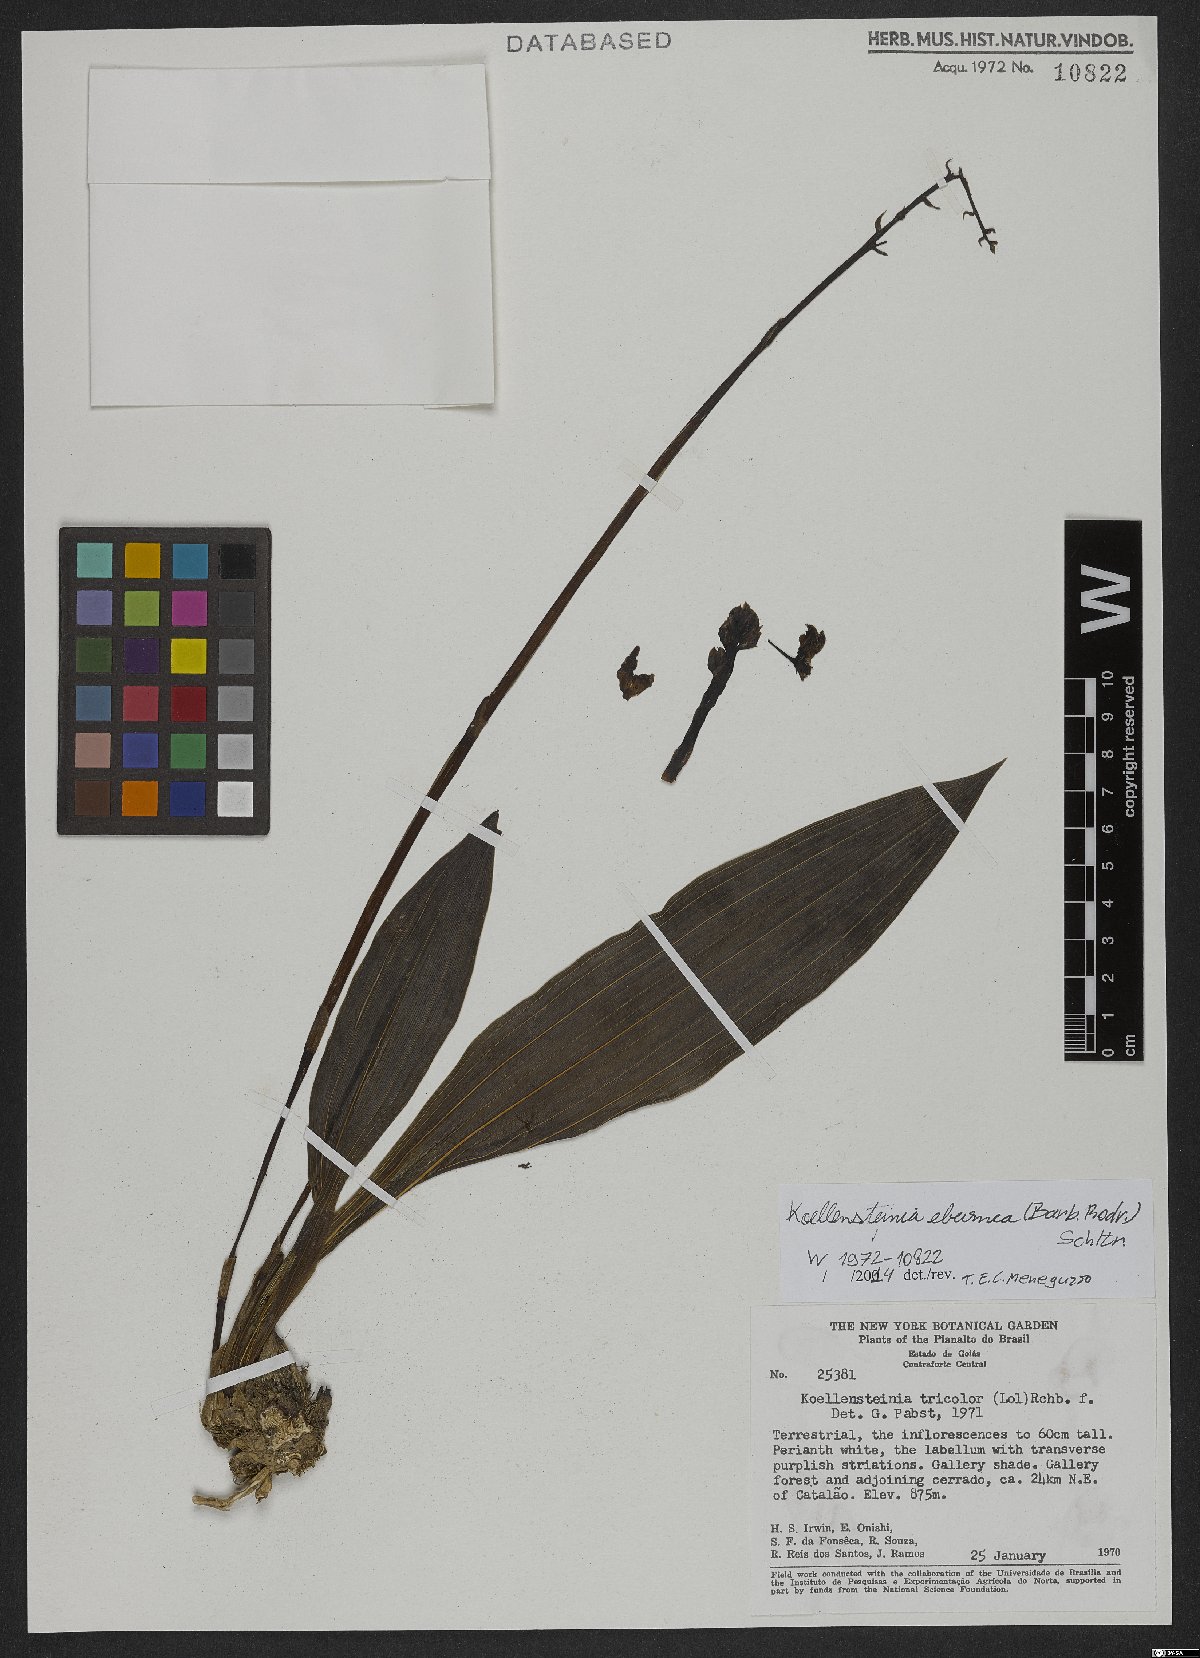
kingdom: Plantae
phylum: Tracheophyta
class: Liliopsida
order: Asparagales
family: Orchidaceae
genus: Koellensteinia
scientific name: Koellensteinia eburnea
